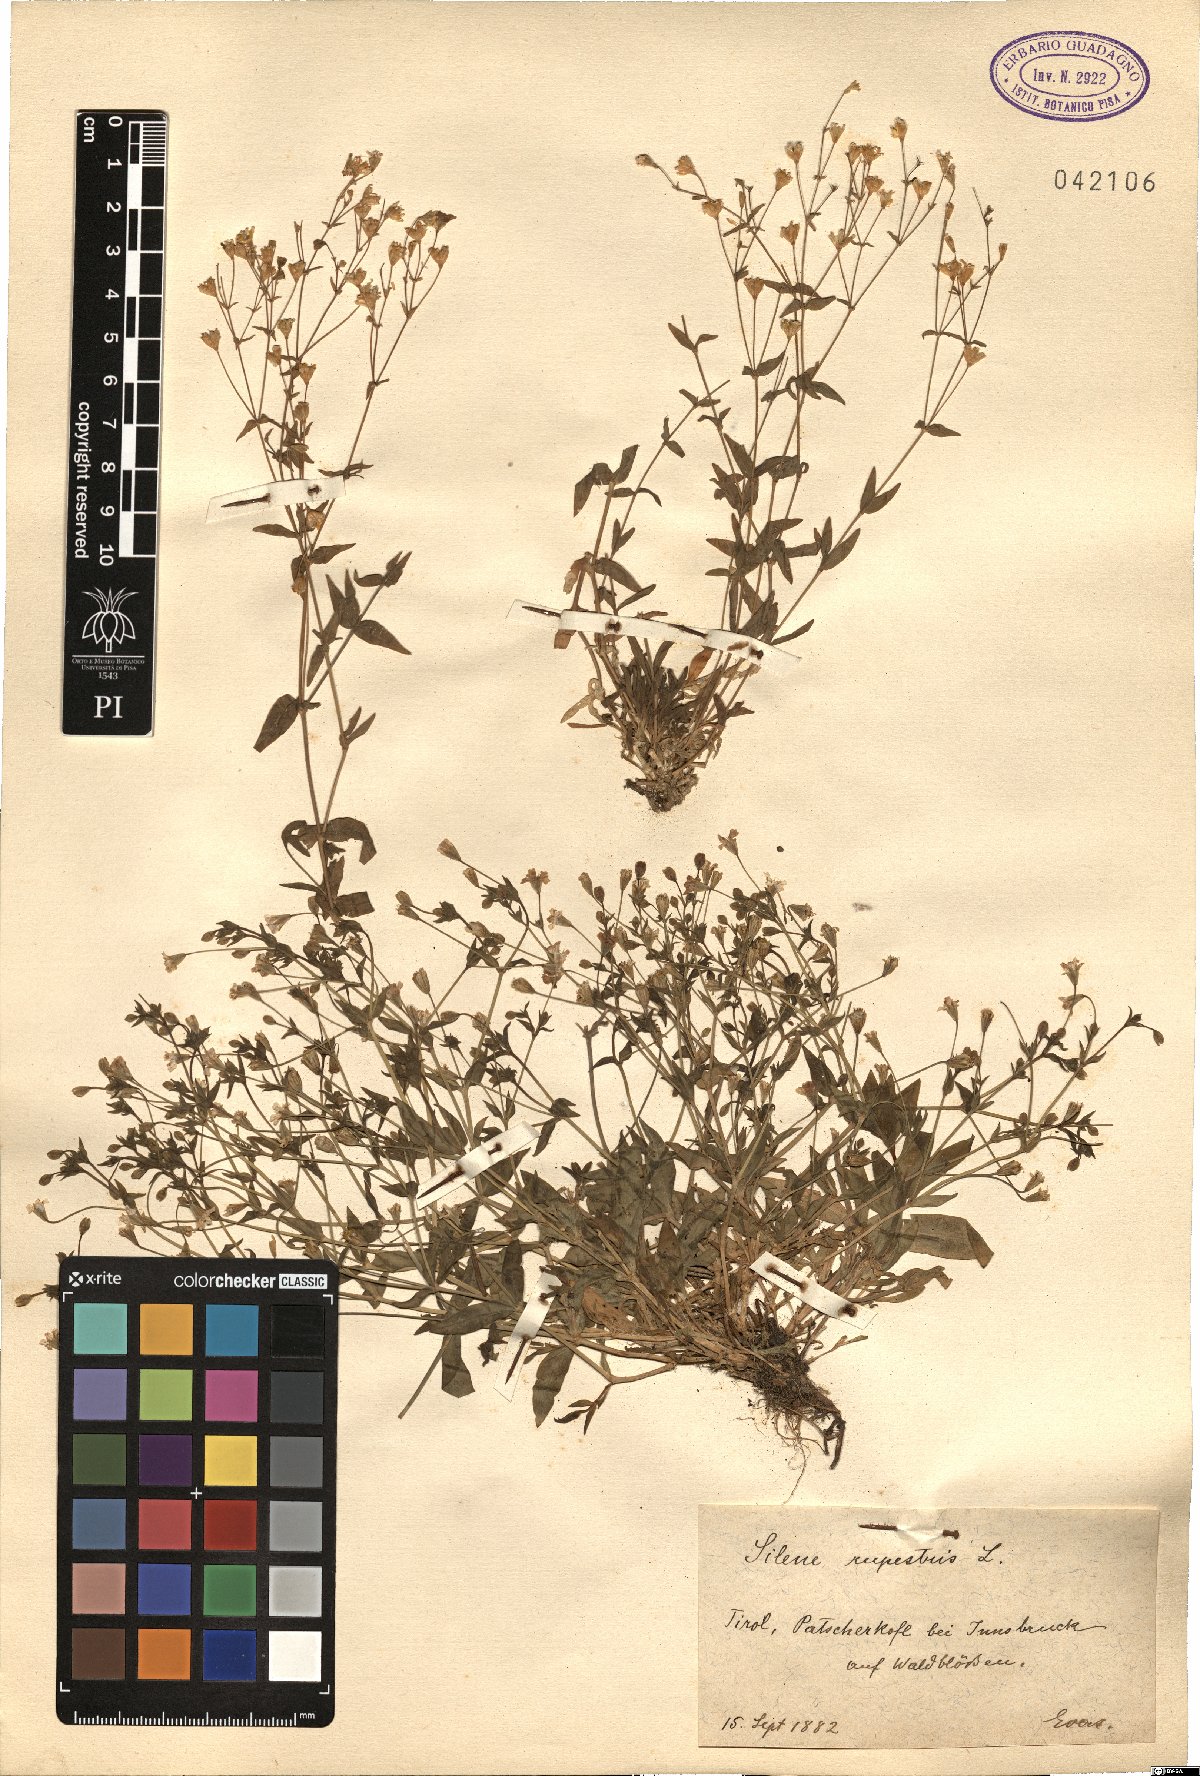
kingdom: Plantae
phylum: Tracheophyta
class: Magnoliopsida
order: Caryophyllales
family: Caryophyllaceae
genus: Atocion
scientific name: Atocion rupestre
